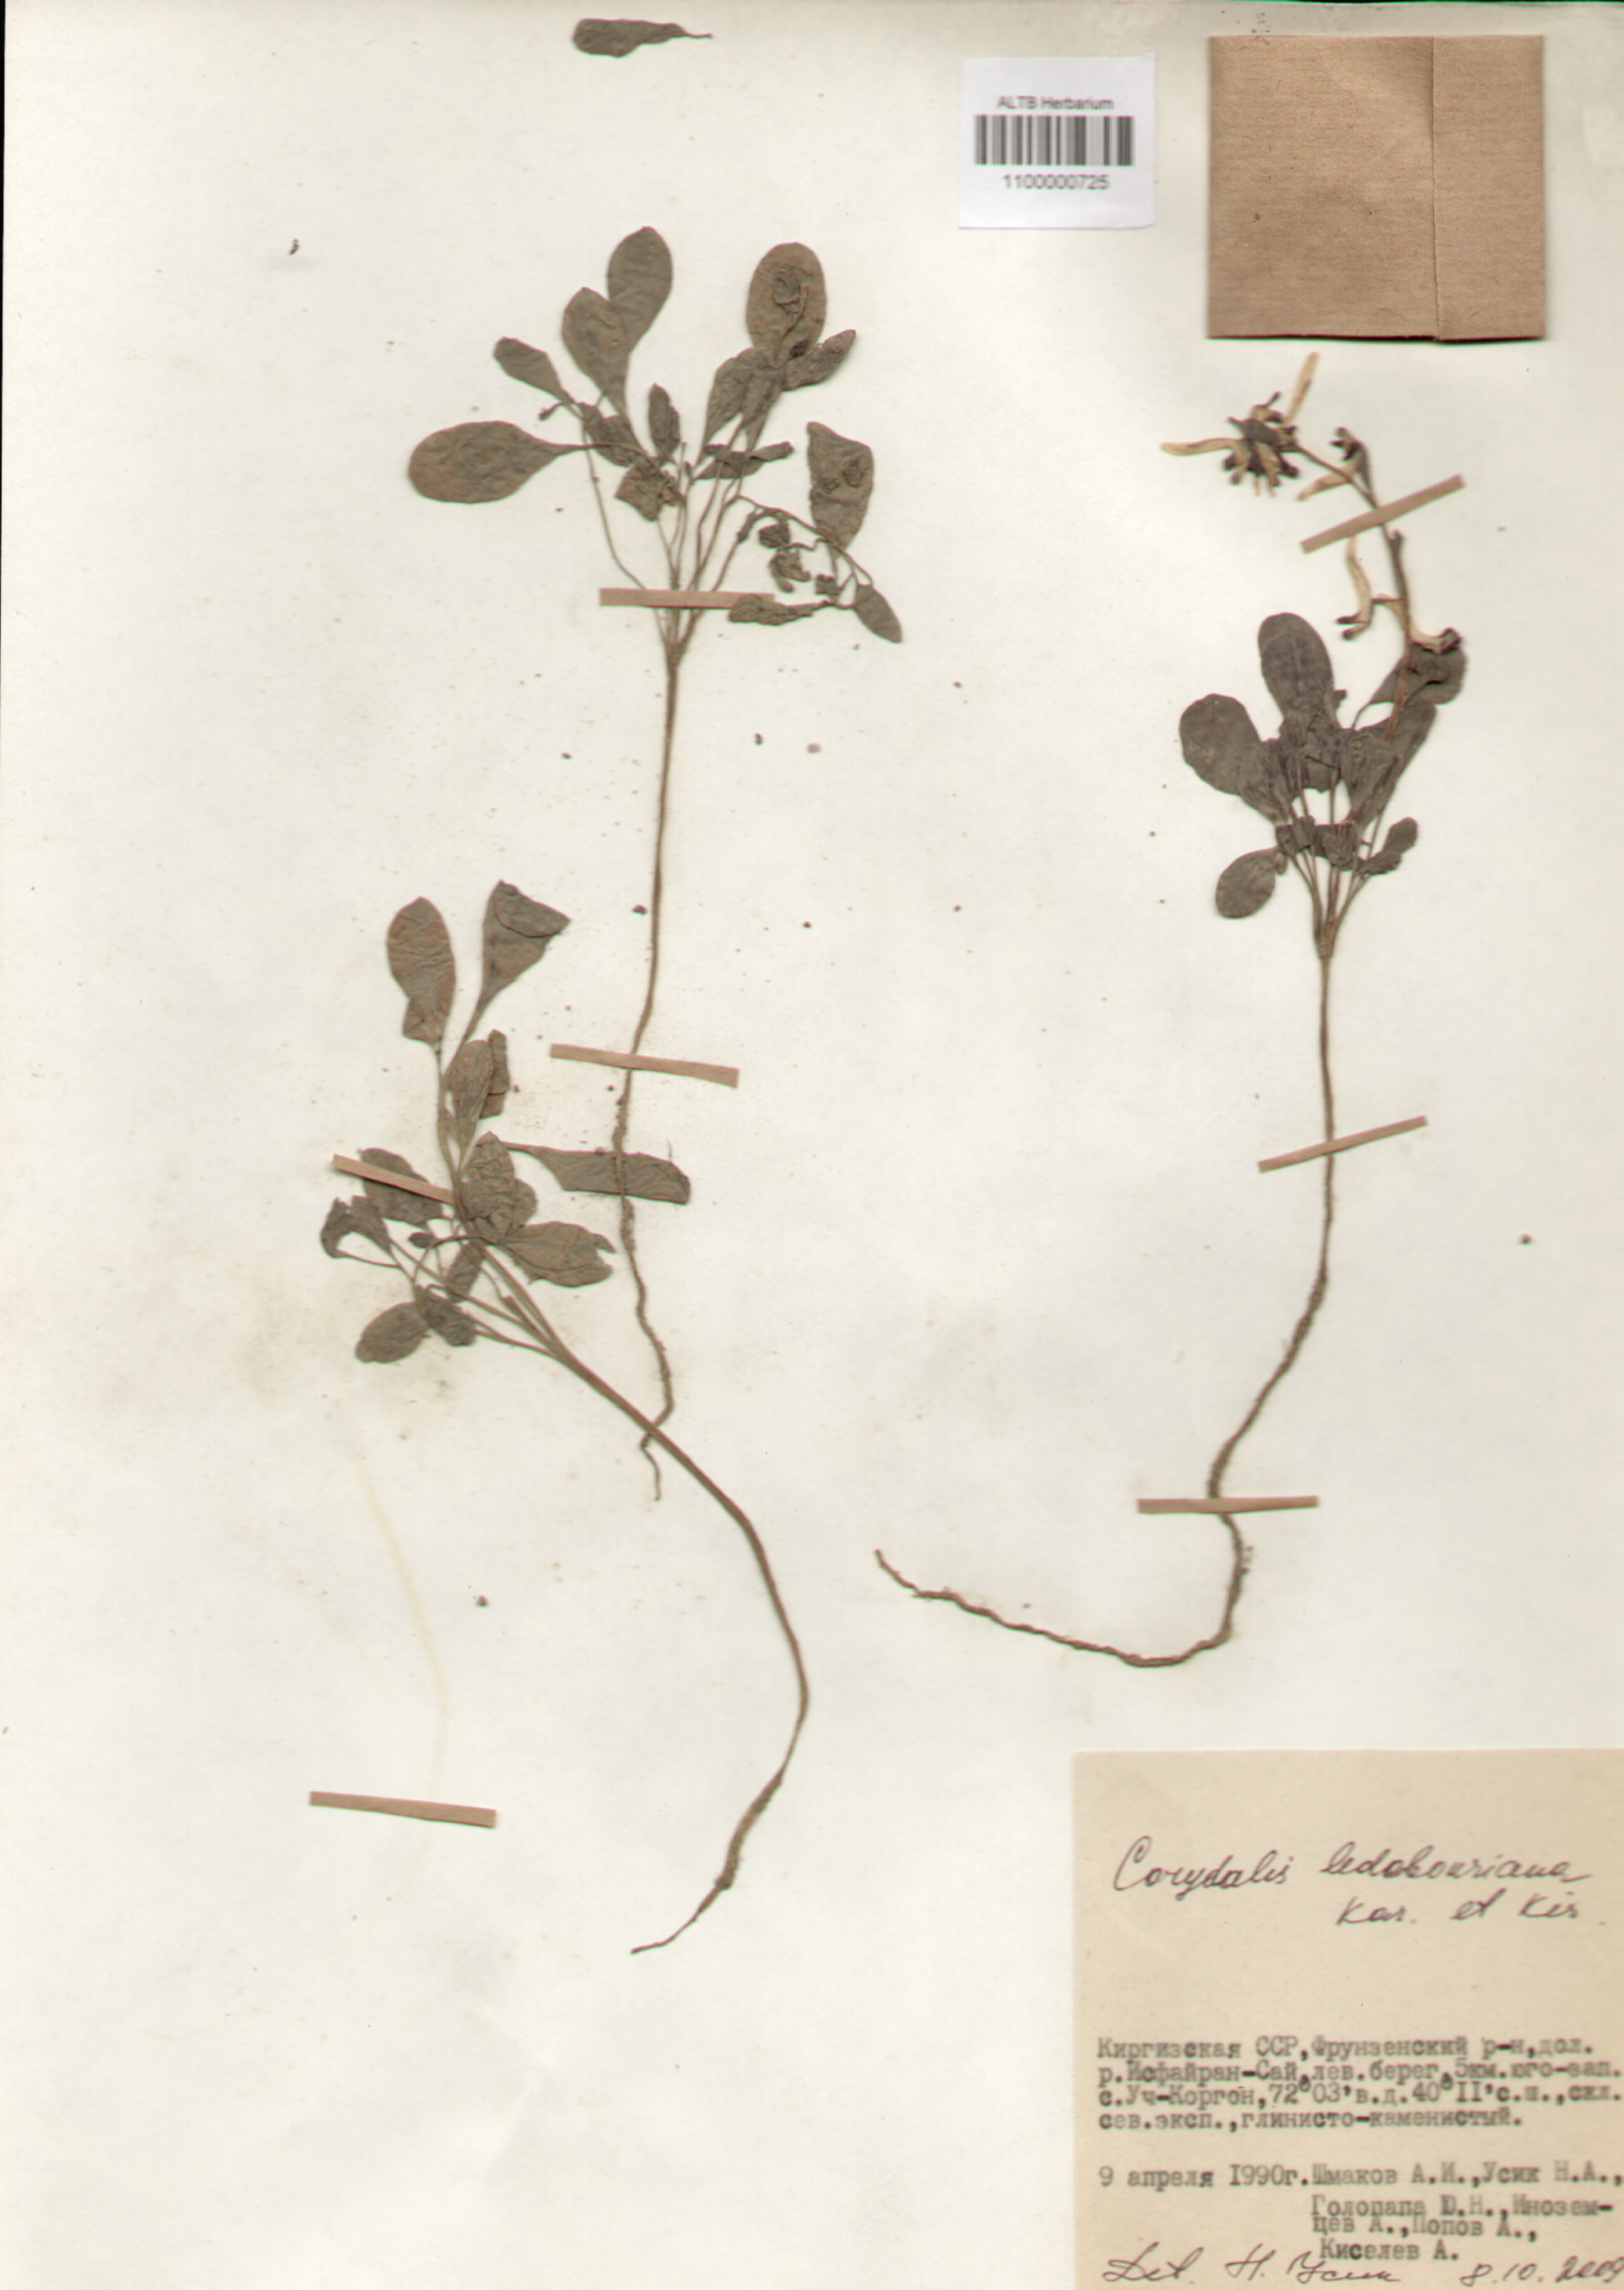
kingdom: Plantae
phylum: Tracheophyta
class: Magnoliopsida
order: Ranunculales
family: Papaveraceae
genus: Corydalis
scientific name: Corydalis ledebouriana
